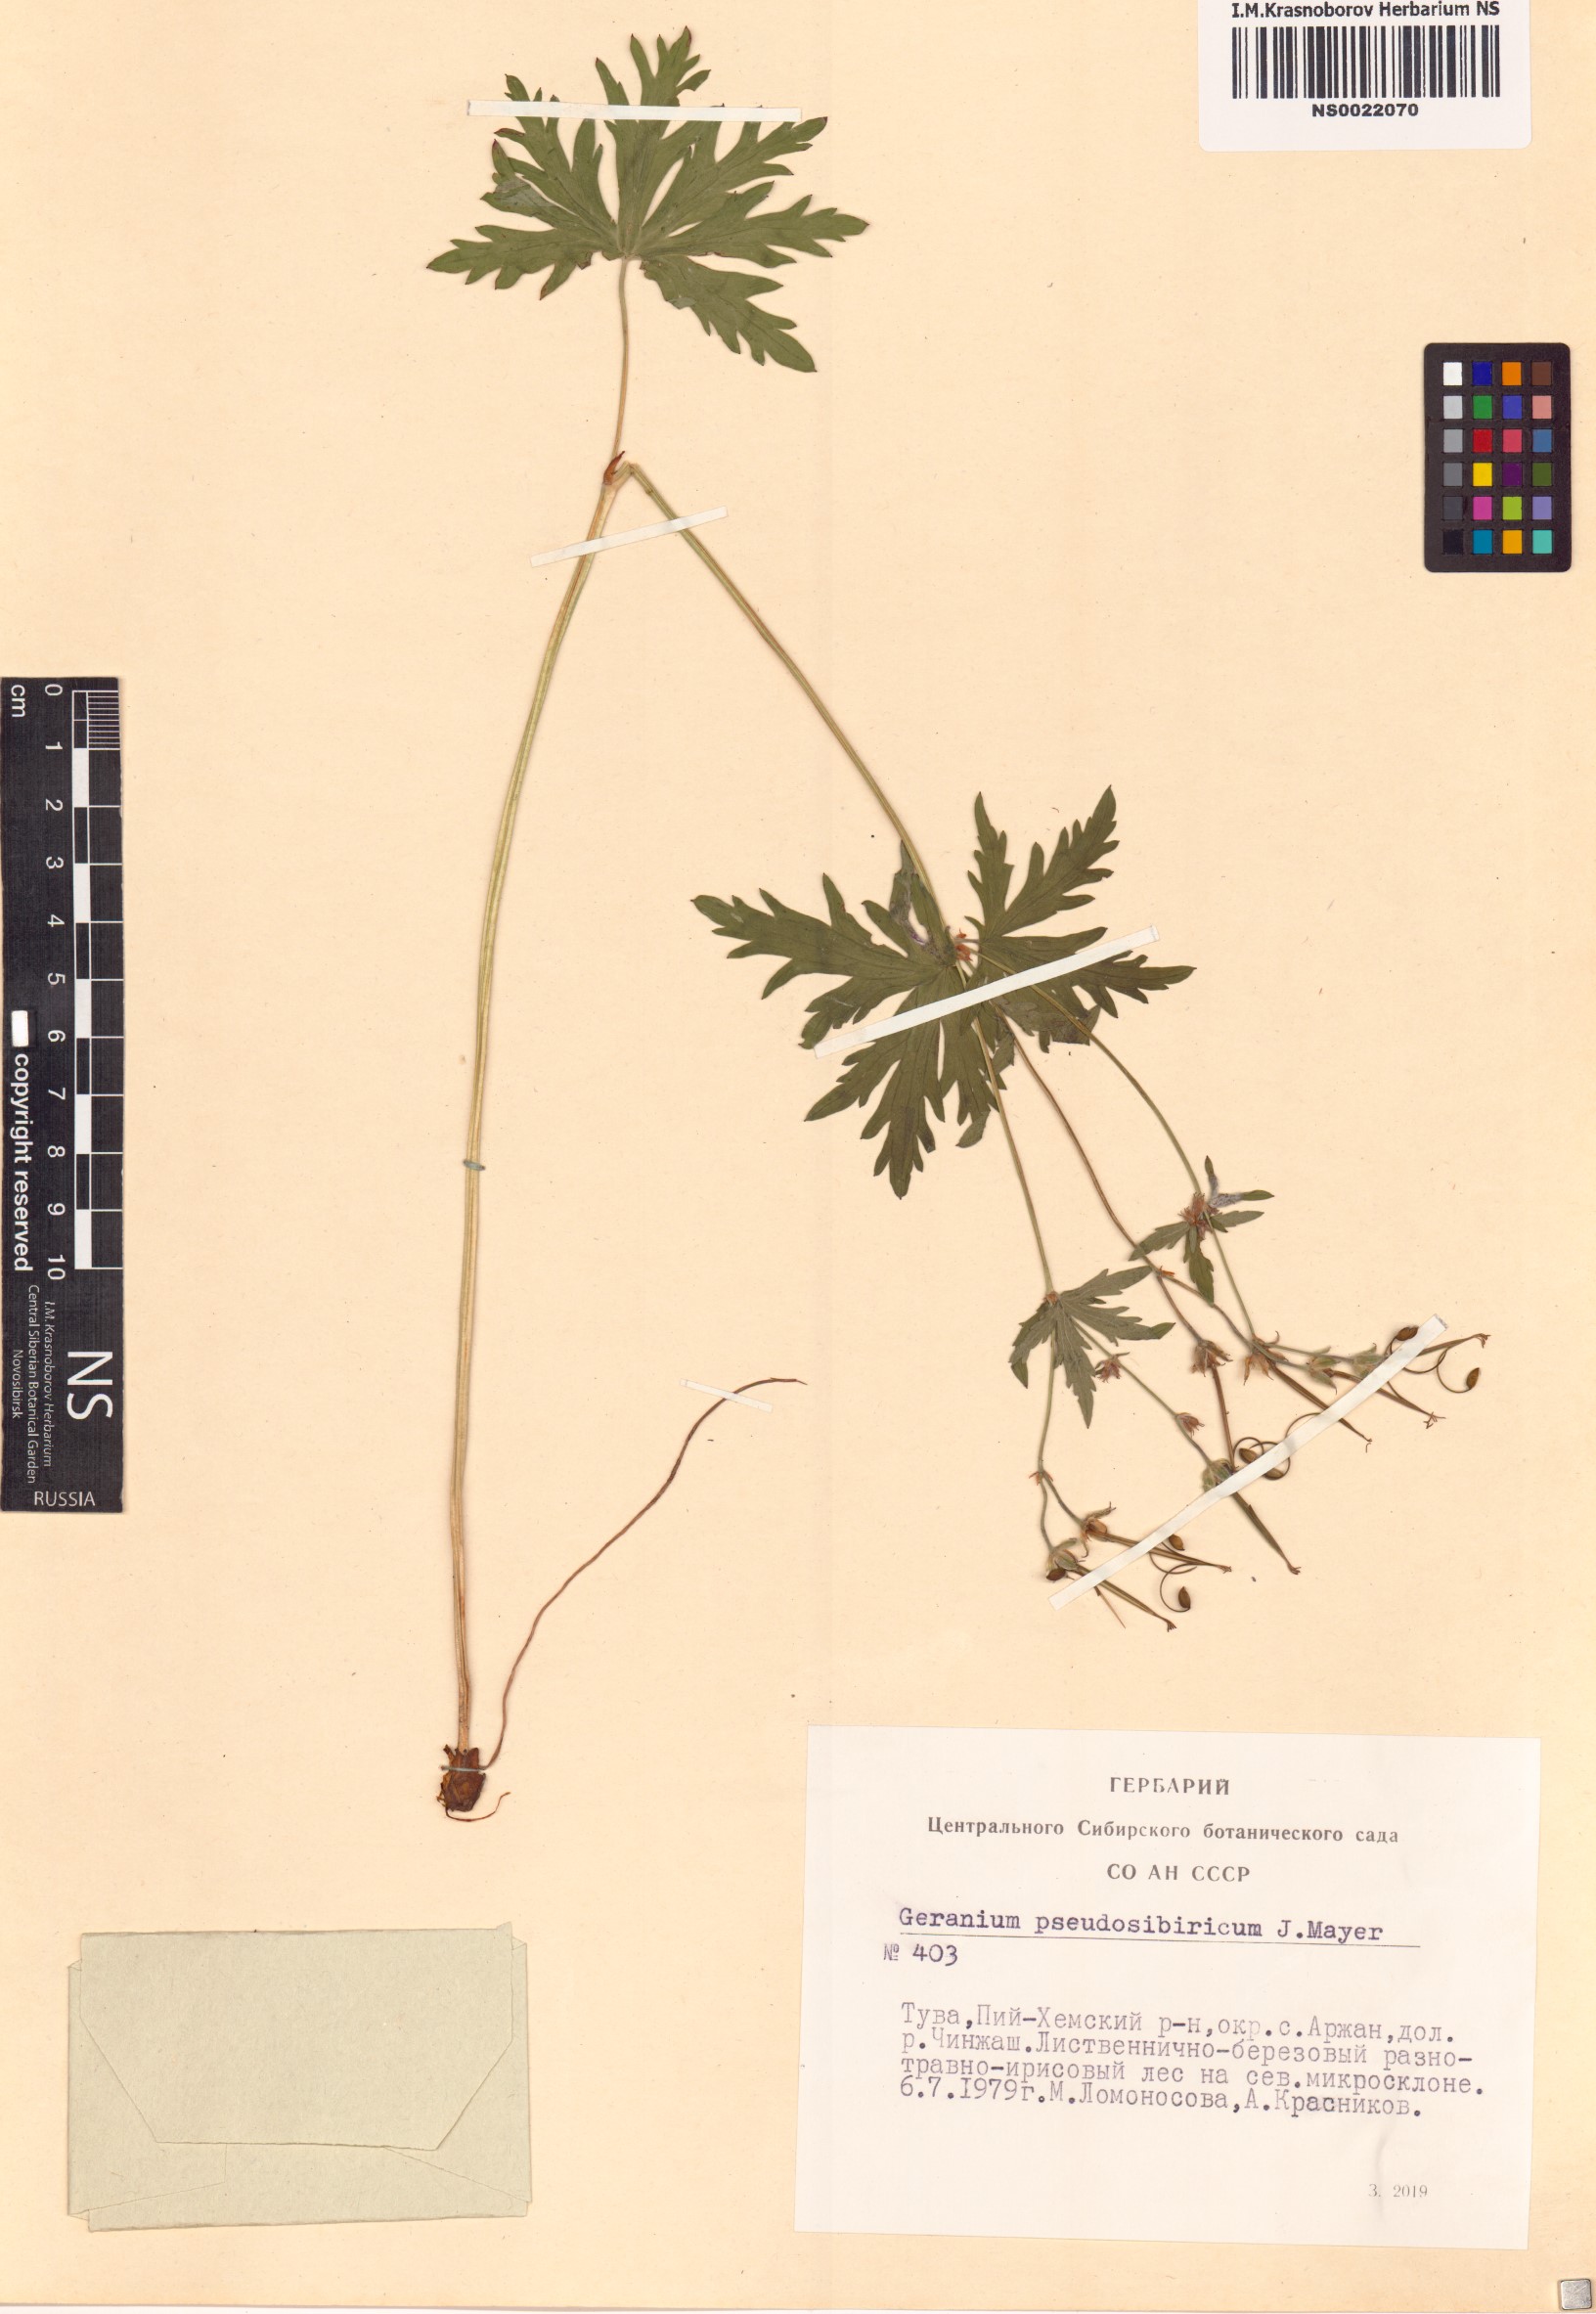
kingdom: Plantae
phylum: Tracheophyta
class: Magnoliopsida
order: Geraniales
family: Geraniaceae
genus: Geranium
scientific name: Geranium pseudosibiricum
